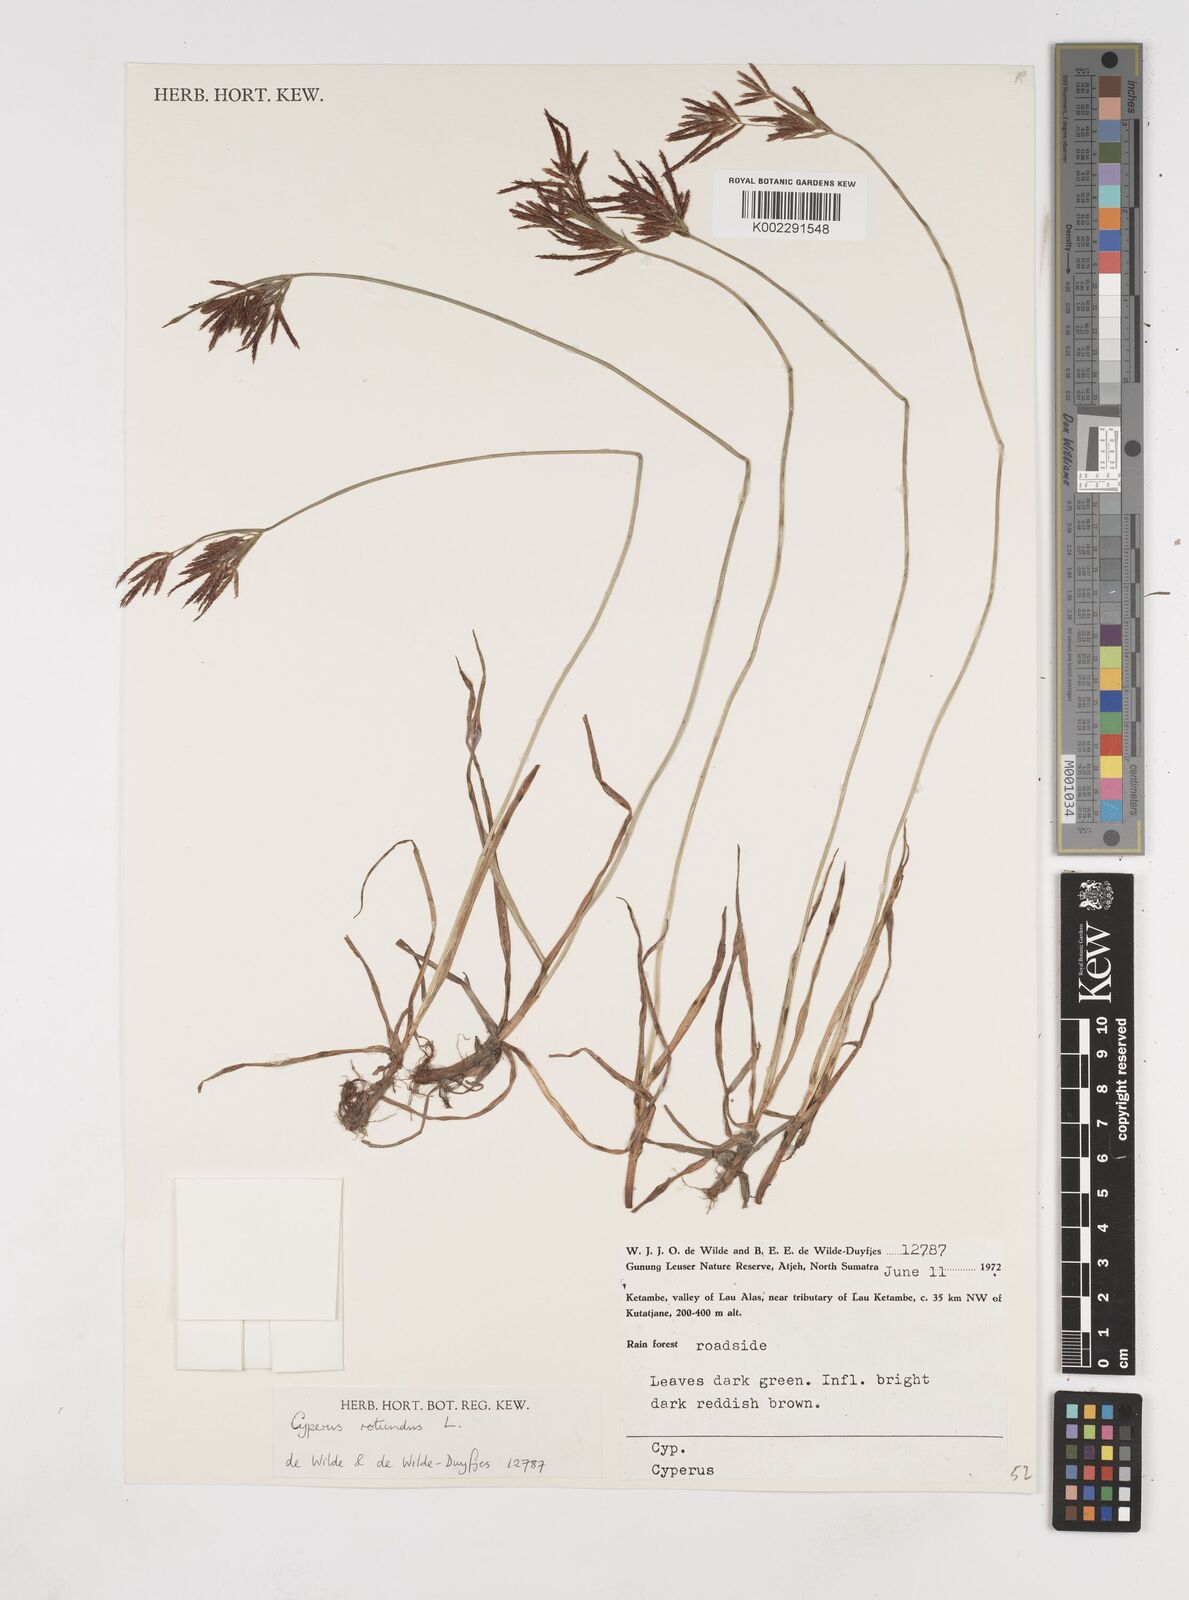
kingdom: Plantae
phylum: Tracheophyta
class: Liliopsida
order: Poales
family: Cyperaceae
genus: Cyperus
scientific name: Cyperus rotundus
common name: Nutgrass
